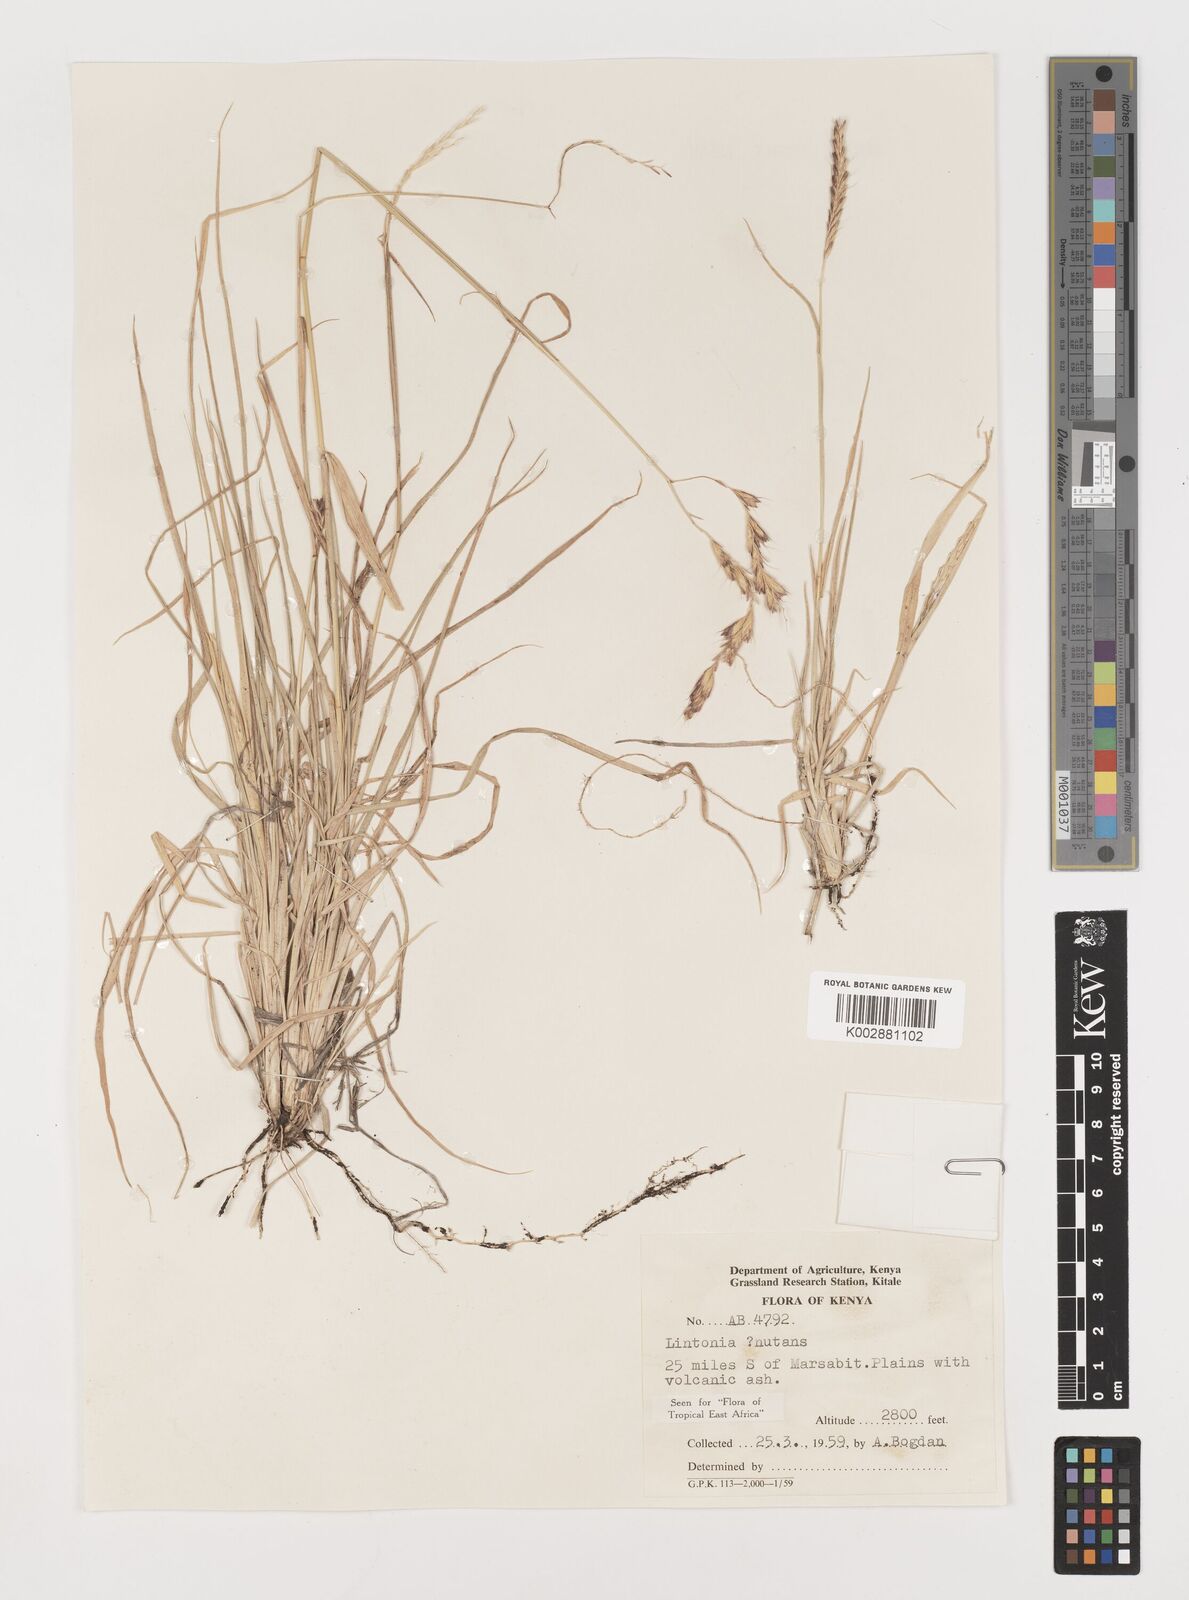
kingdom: Plantae
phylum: Tracheophyta
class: Liliopsida
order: Poales
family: Poaceae
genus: Chloris
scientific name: Chloris nutans
